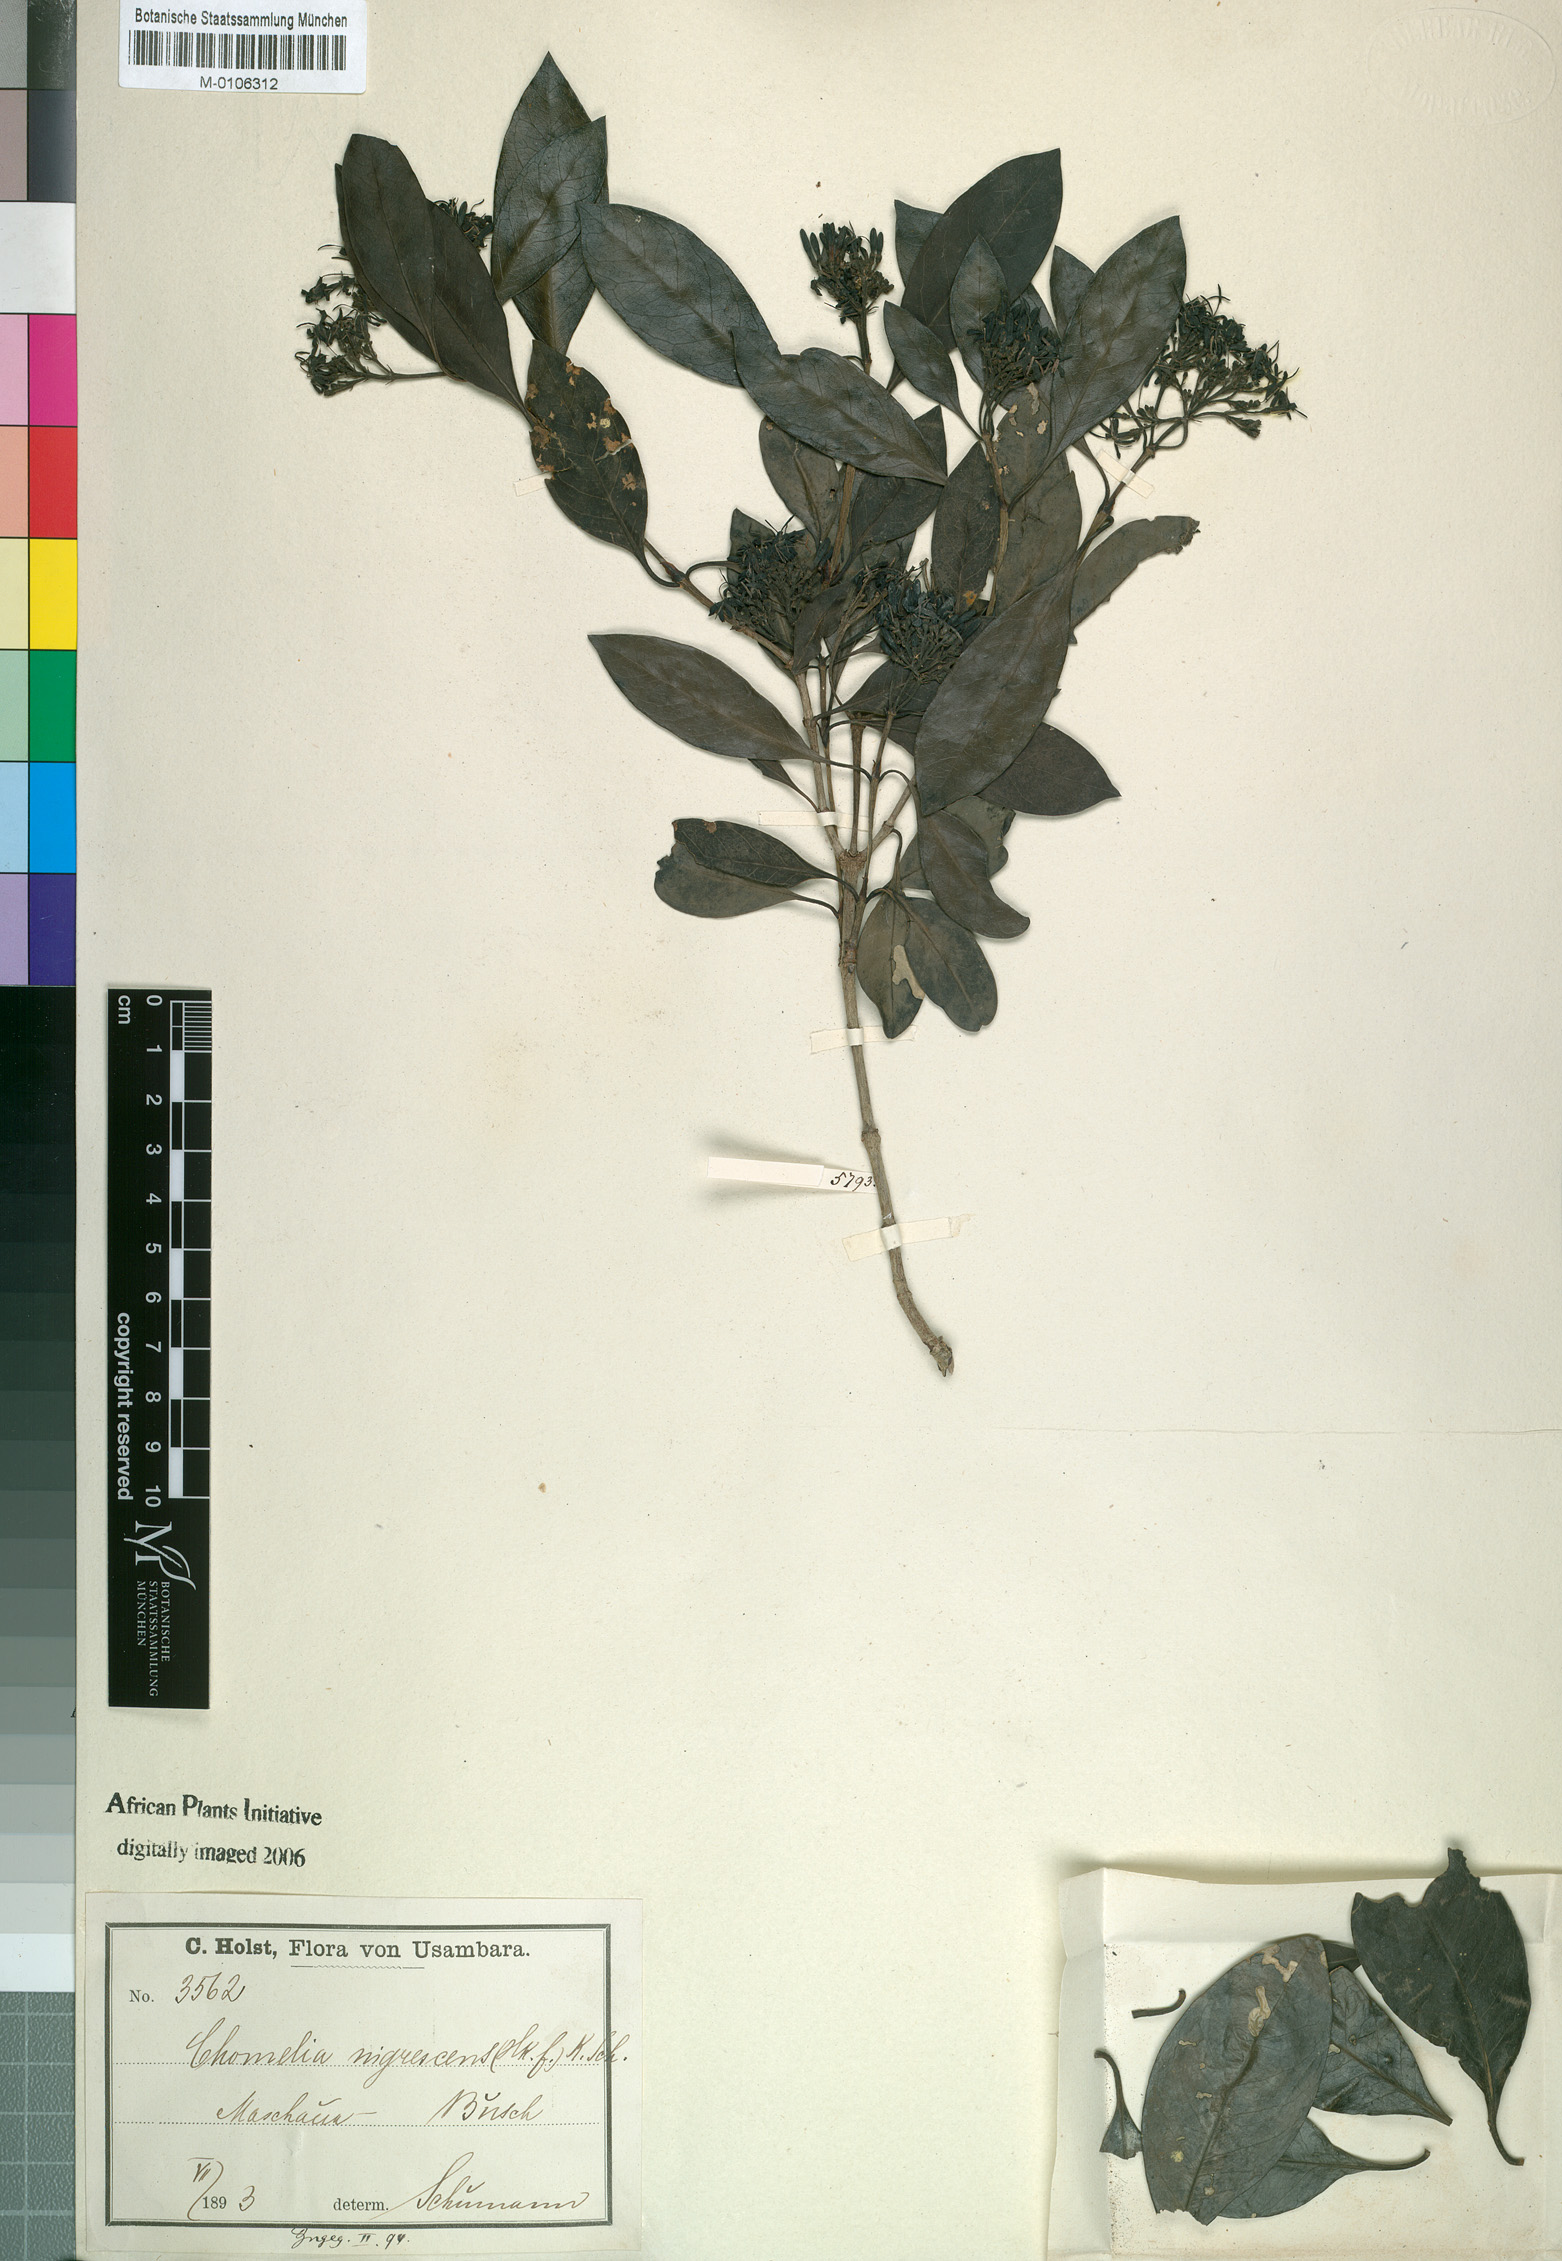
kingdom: Plantae
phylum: Tracheophyta
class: Magnoliopsida
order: Gentianales
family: Rubiaceae
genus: Coptosperma
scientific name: Coptosperma graveolens
